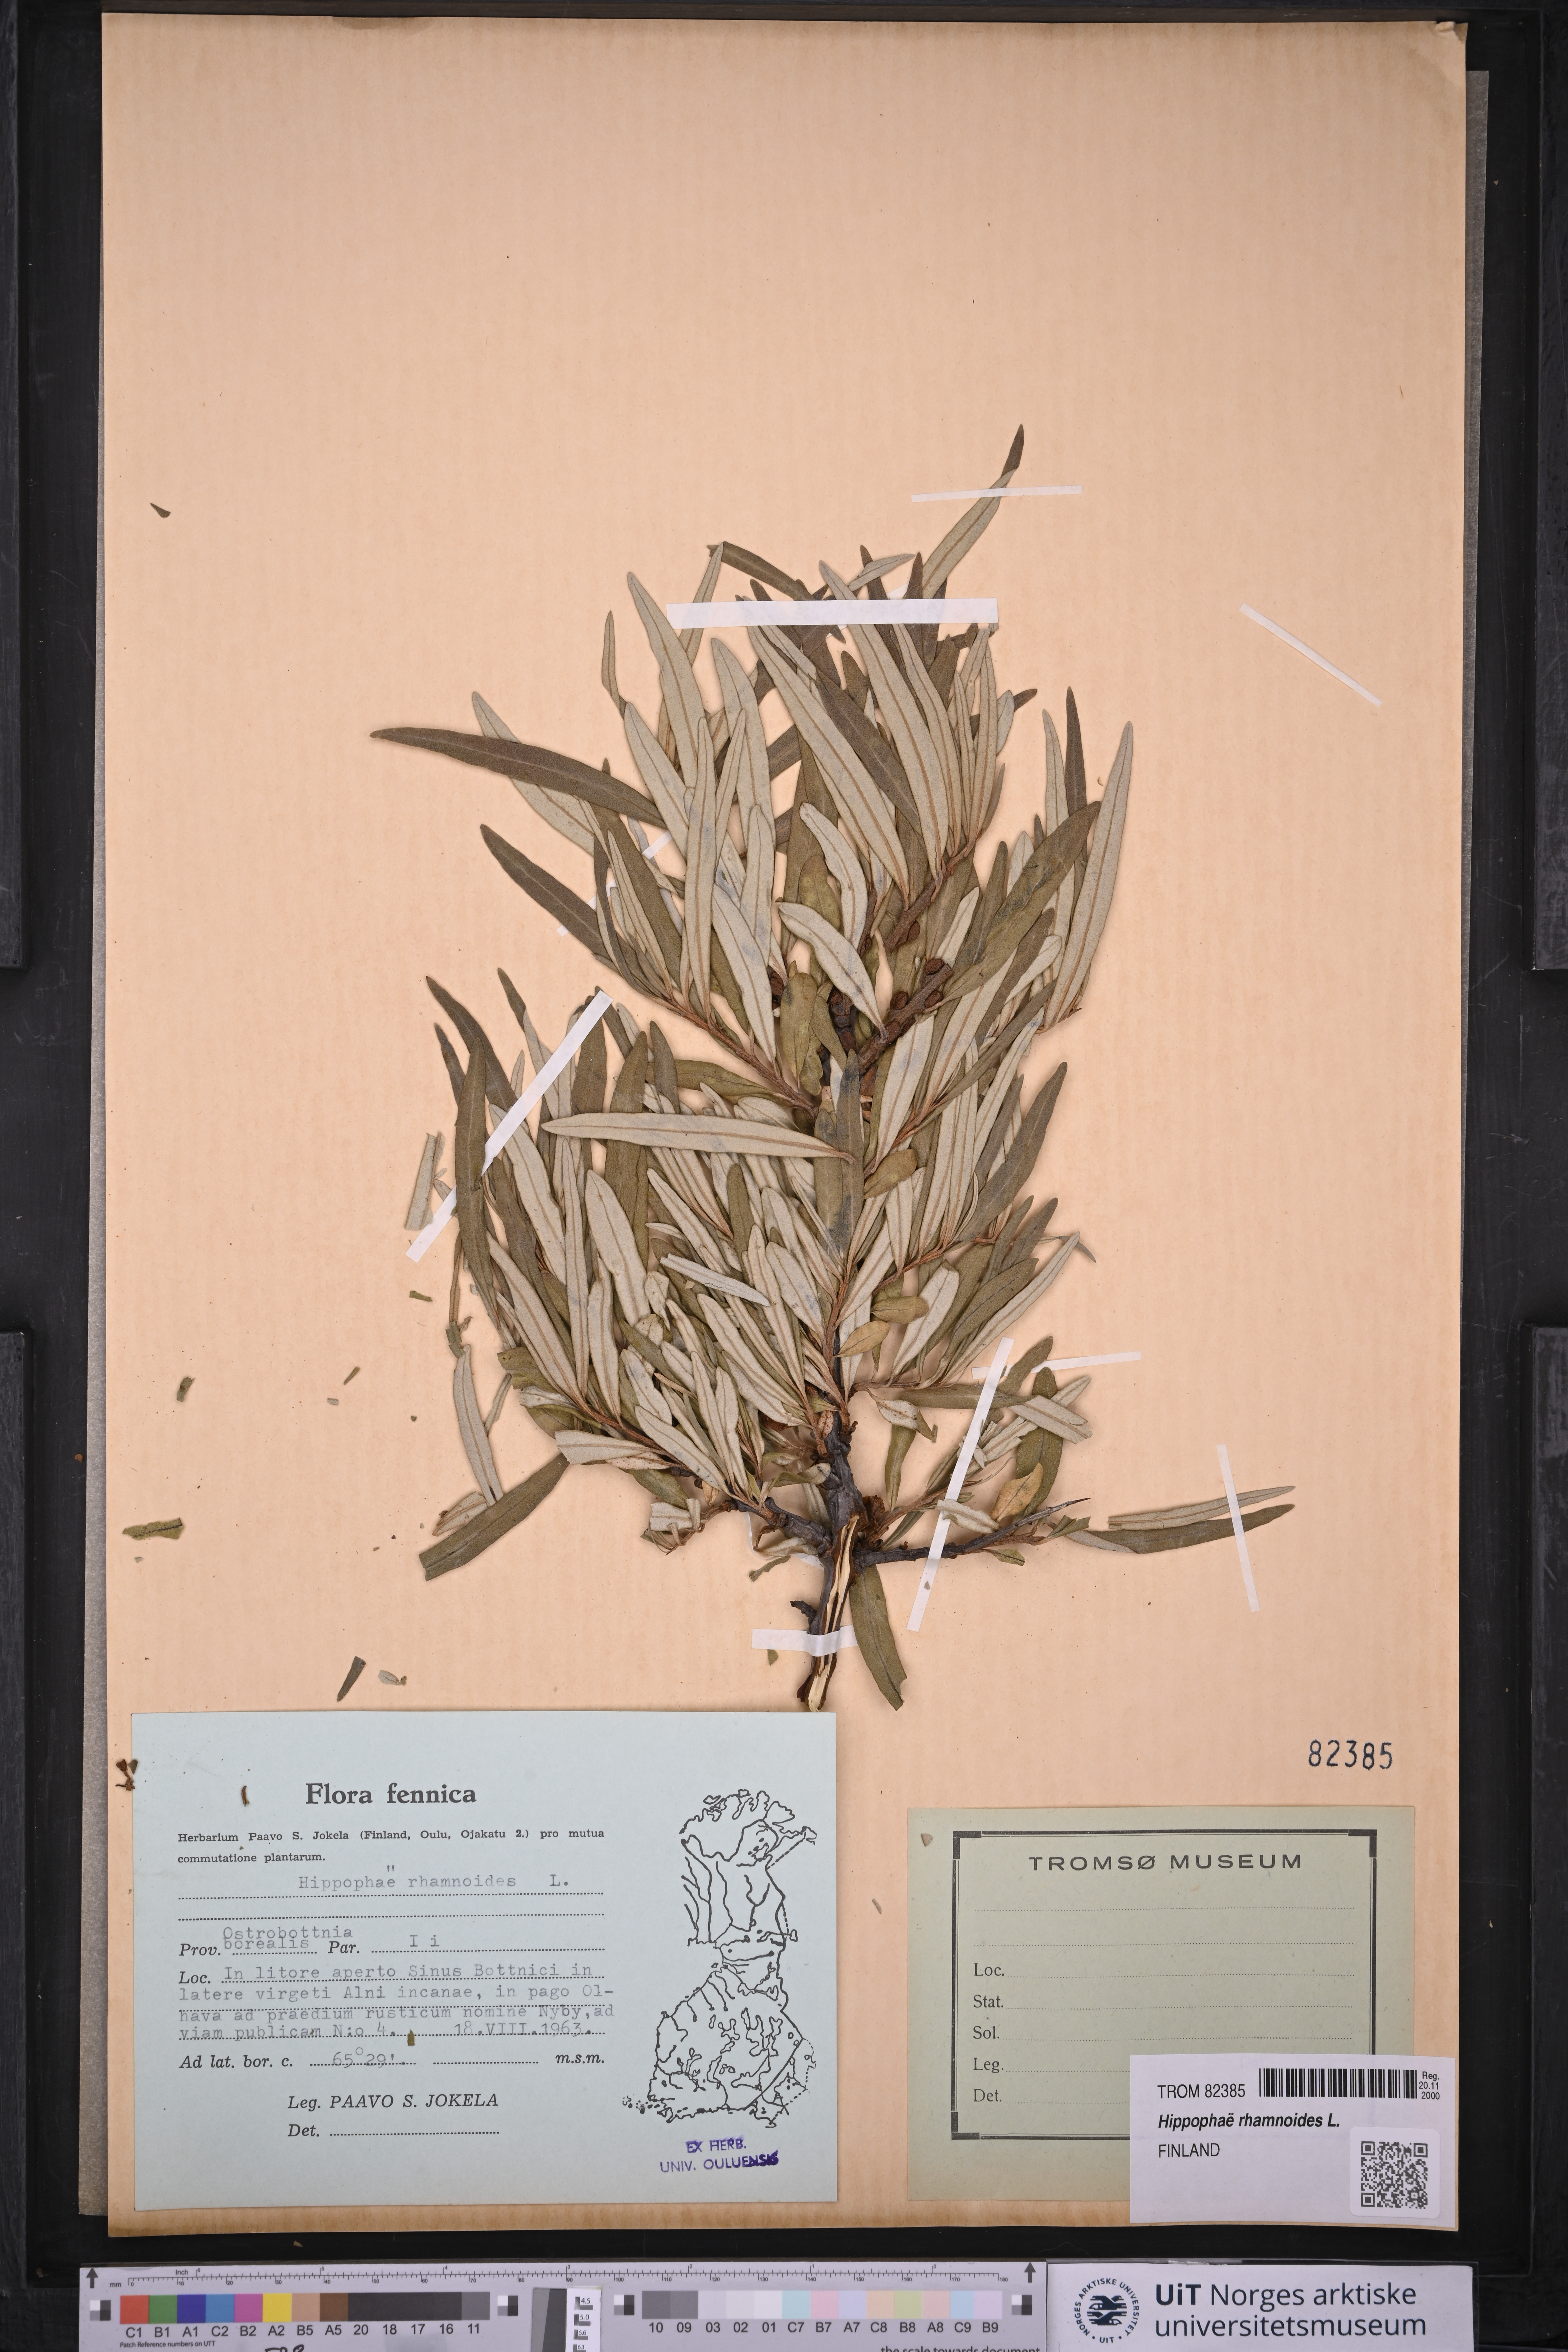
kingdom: Plantae
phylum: Tracheophyta
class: Magnoliopsida
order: Rosales
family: Elaeagnaceae
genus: Hippophae
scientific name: Hippophae rhamnoides
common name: Sea-buckthorn
